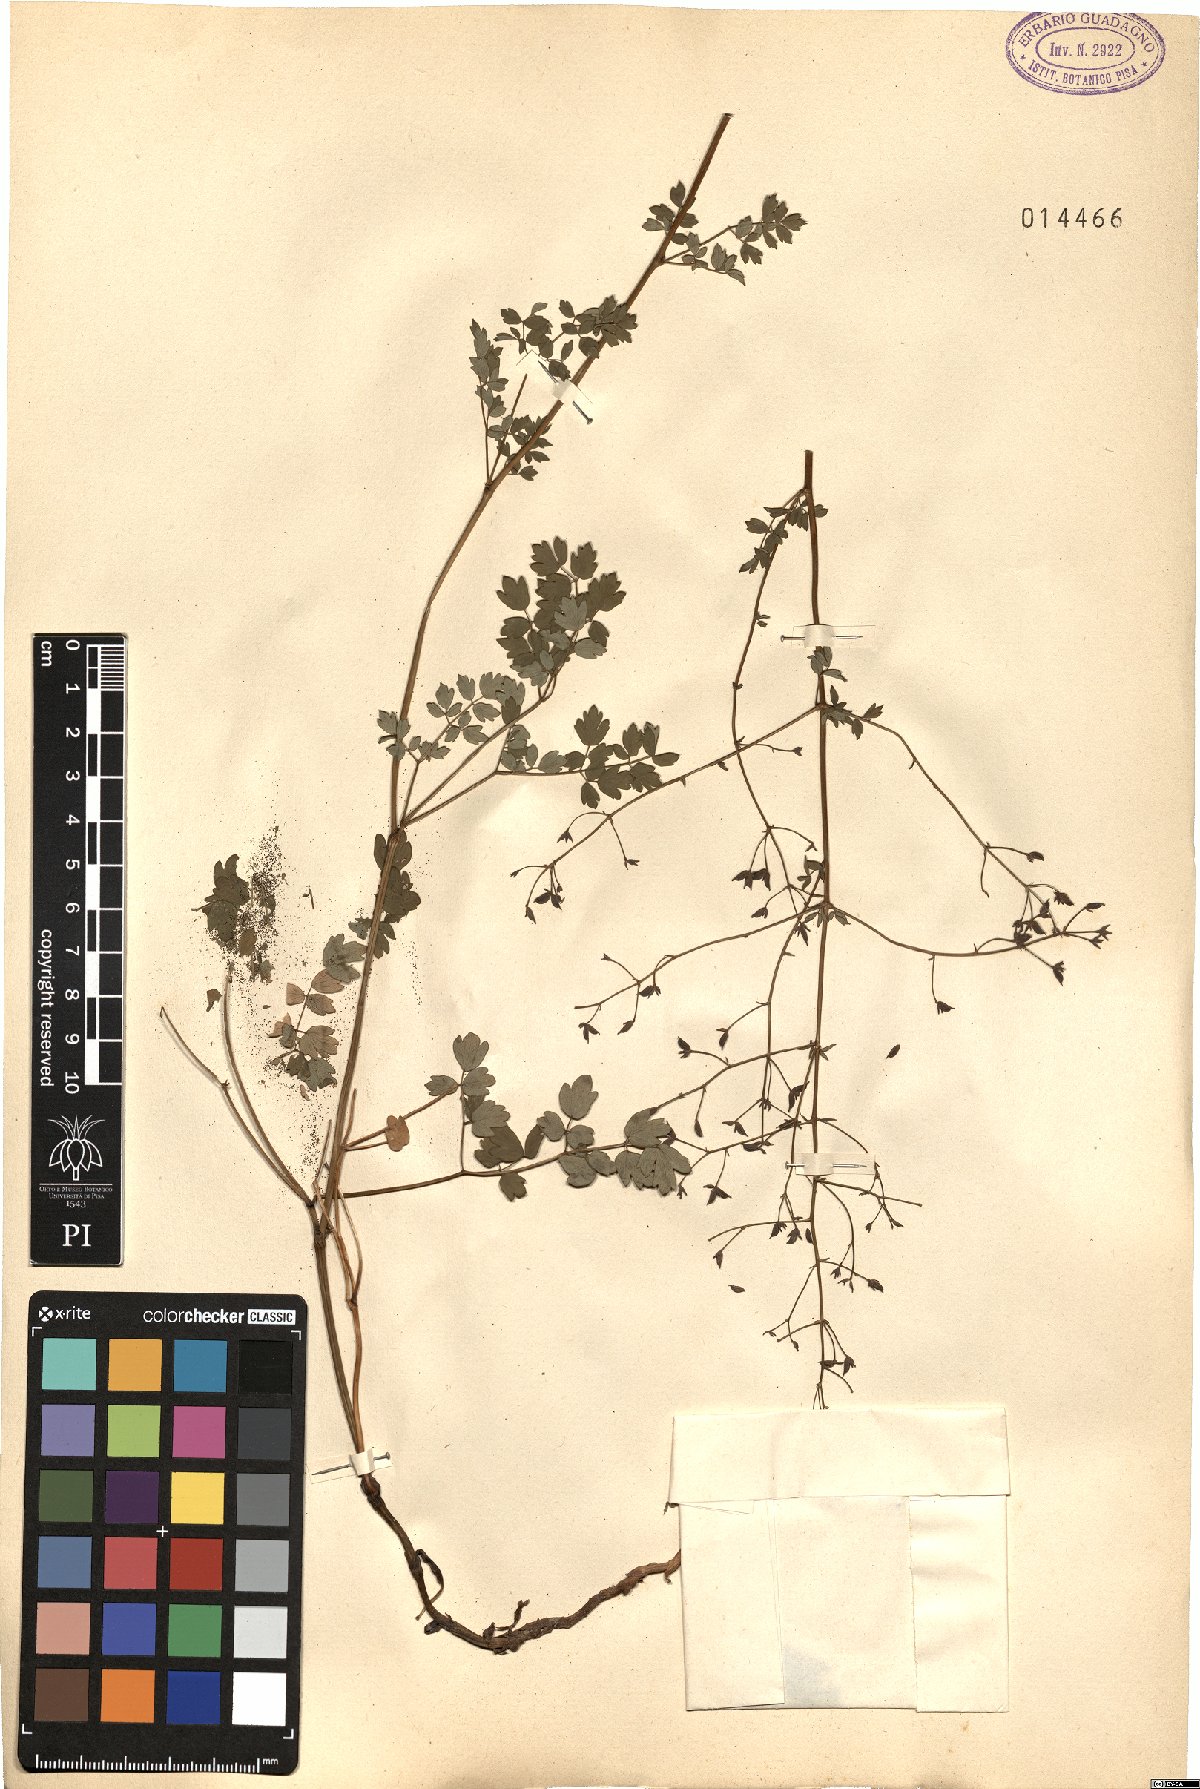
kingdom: Plantae
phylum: Tracheophyta
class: Magnoliopsida
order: Ranunculales
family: Ranunculaceae
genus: Thalictrum
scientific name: Thalictrum
